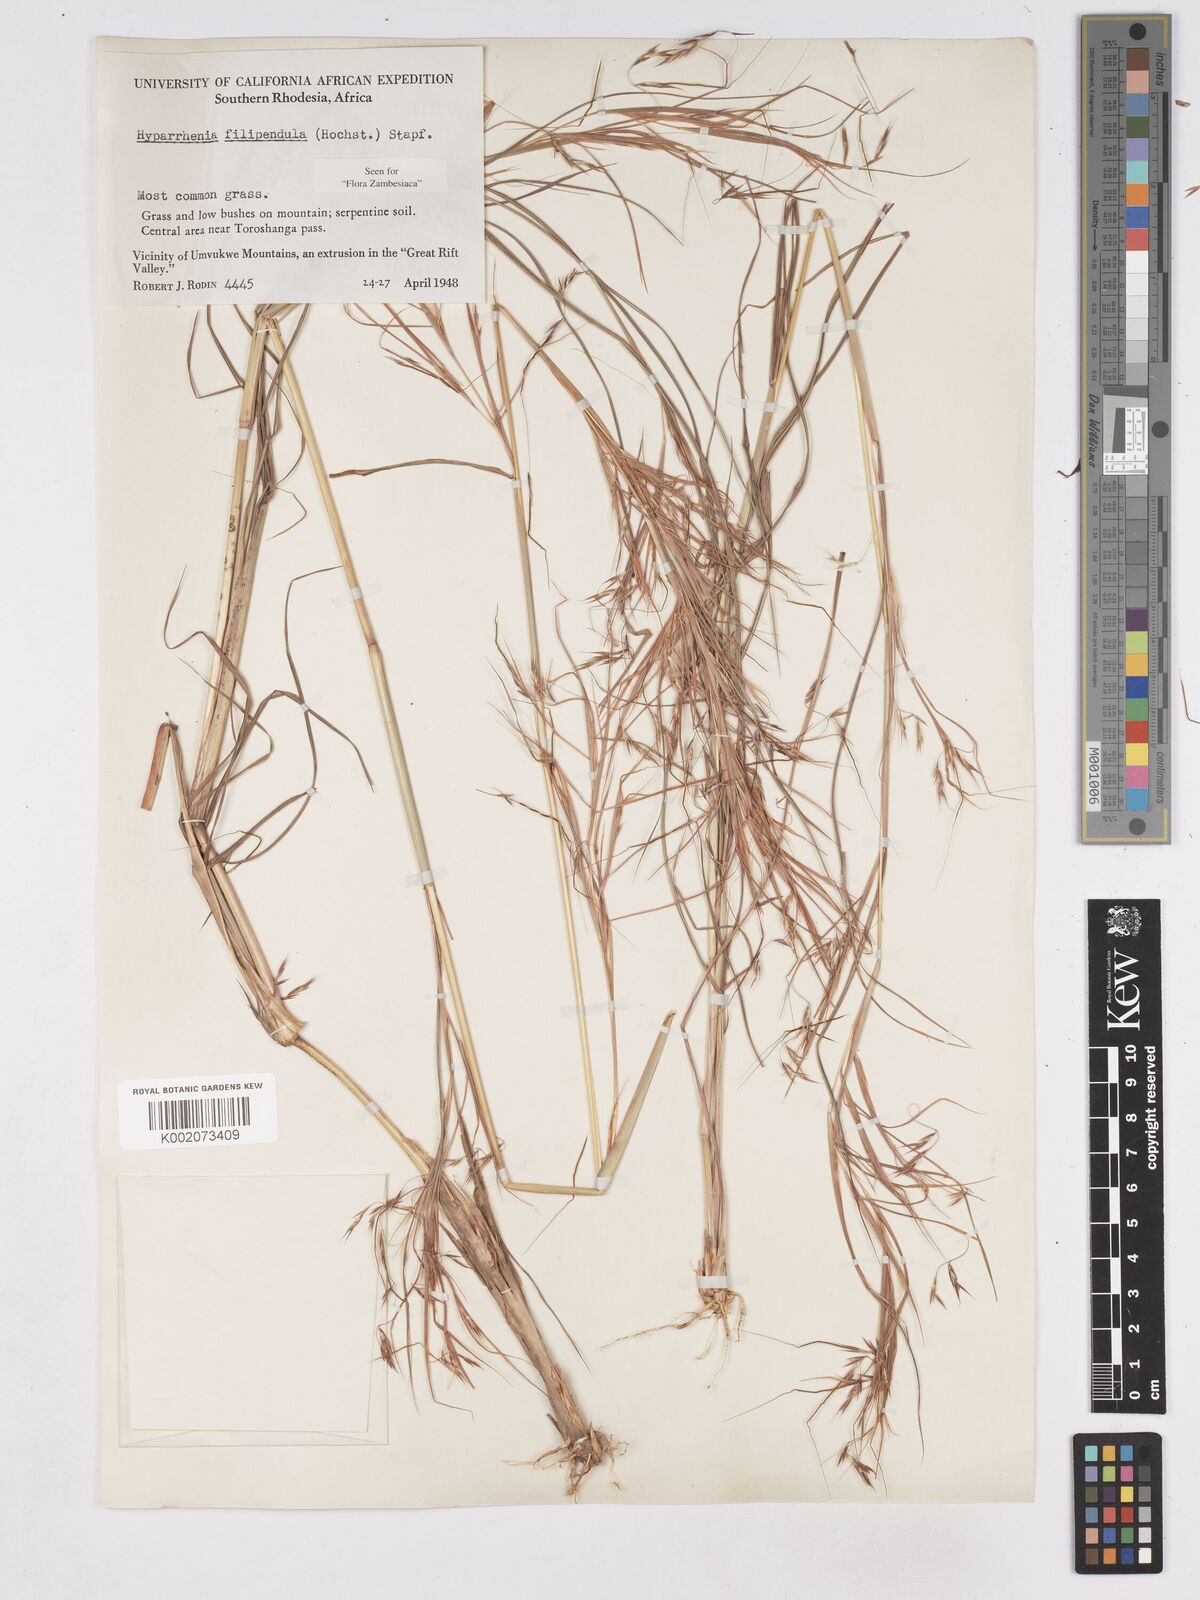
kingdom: Plantae
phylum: Tracheophyta
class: Liliopsida
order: Poales
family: Poaceae
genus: Hyparrhenia
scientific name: Hyparrhenia filipendula
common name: Tambookie grass
